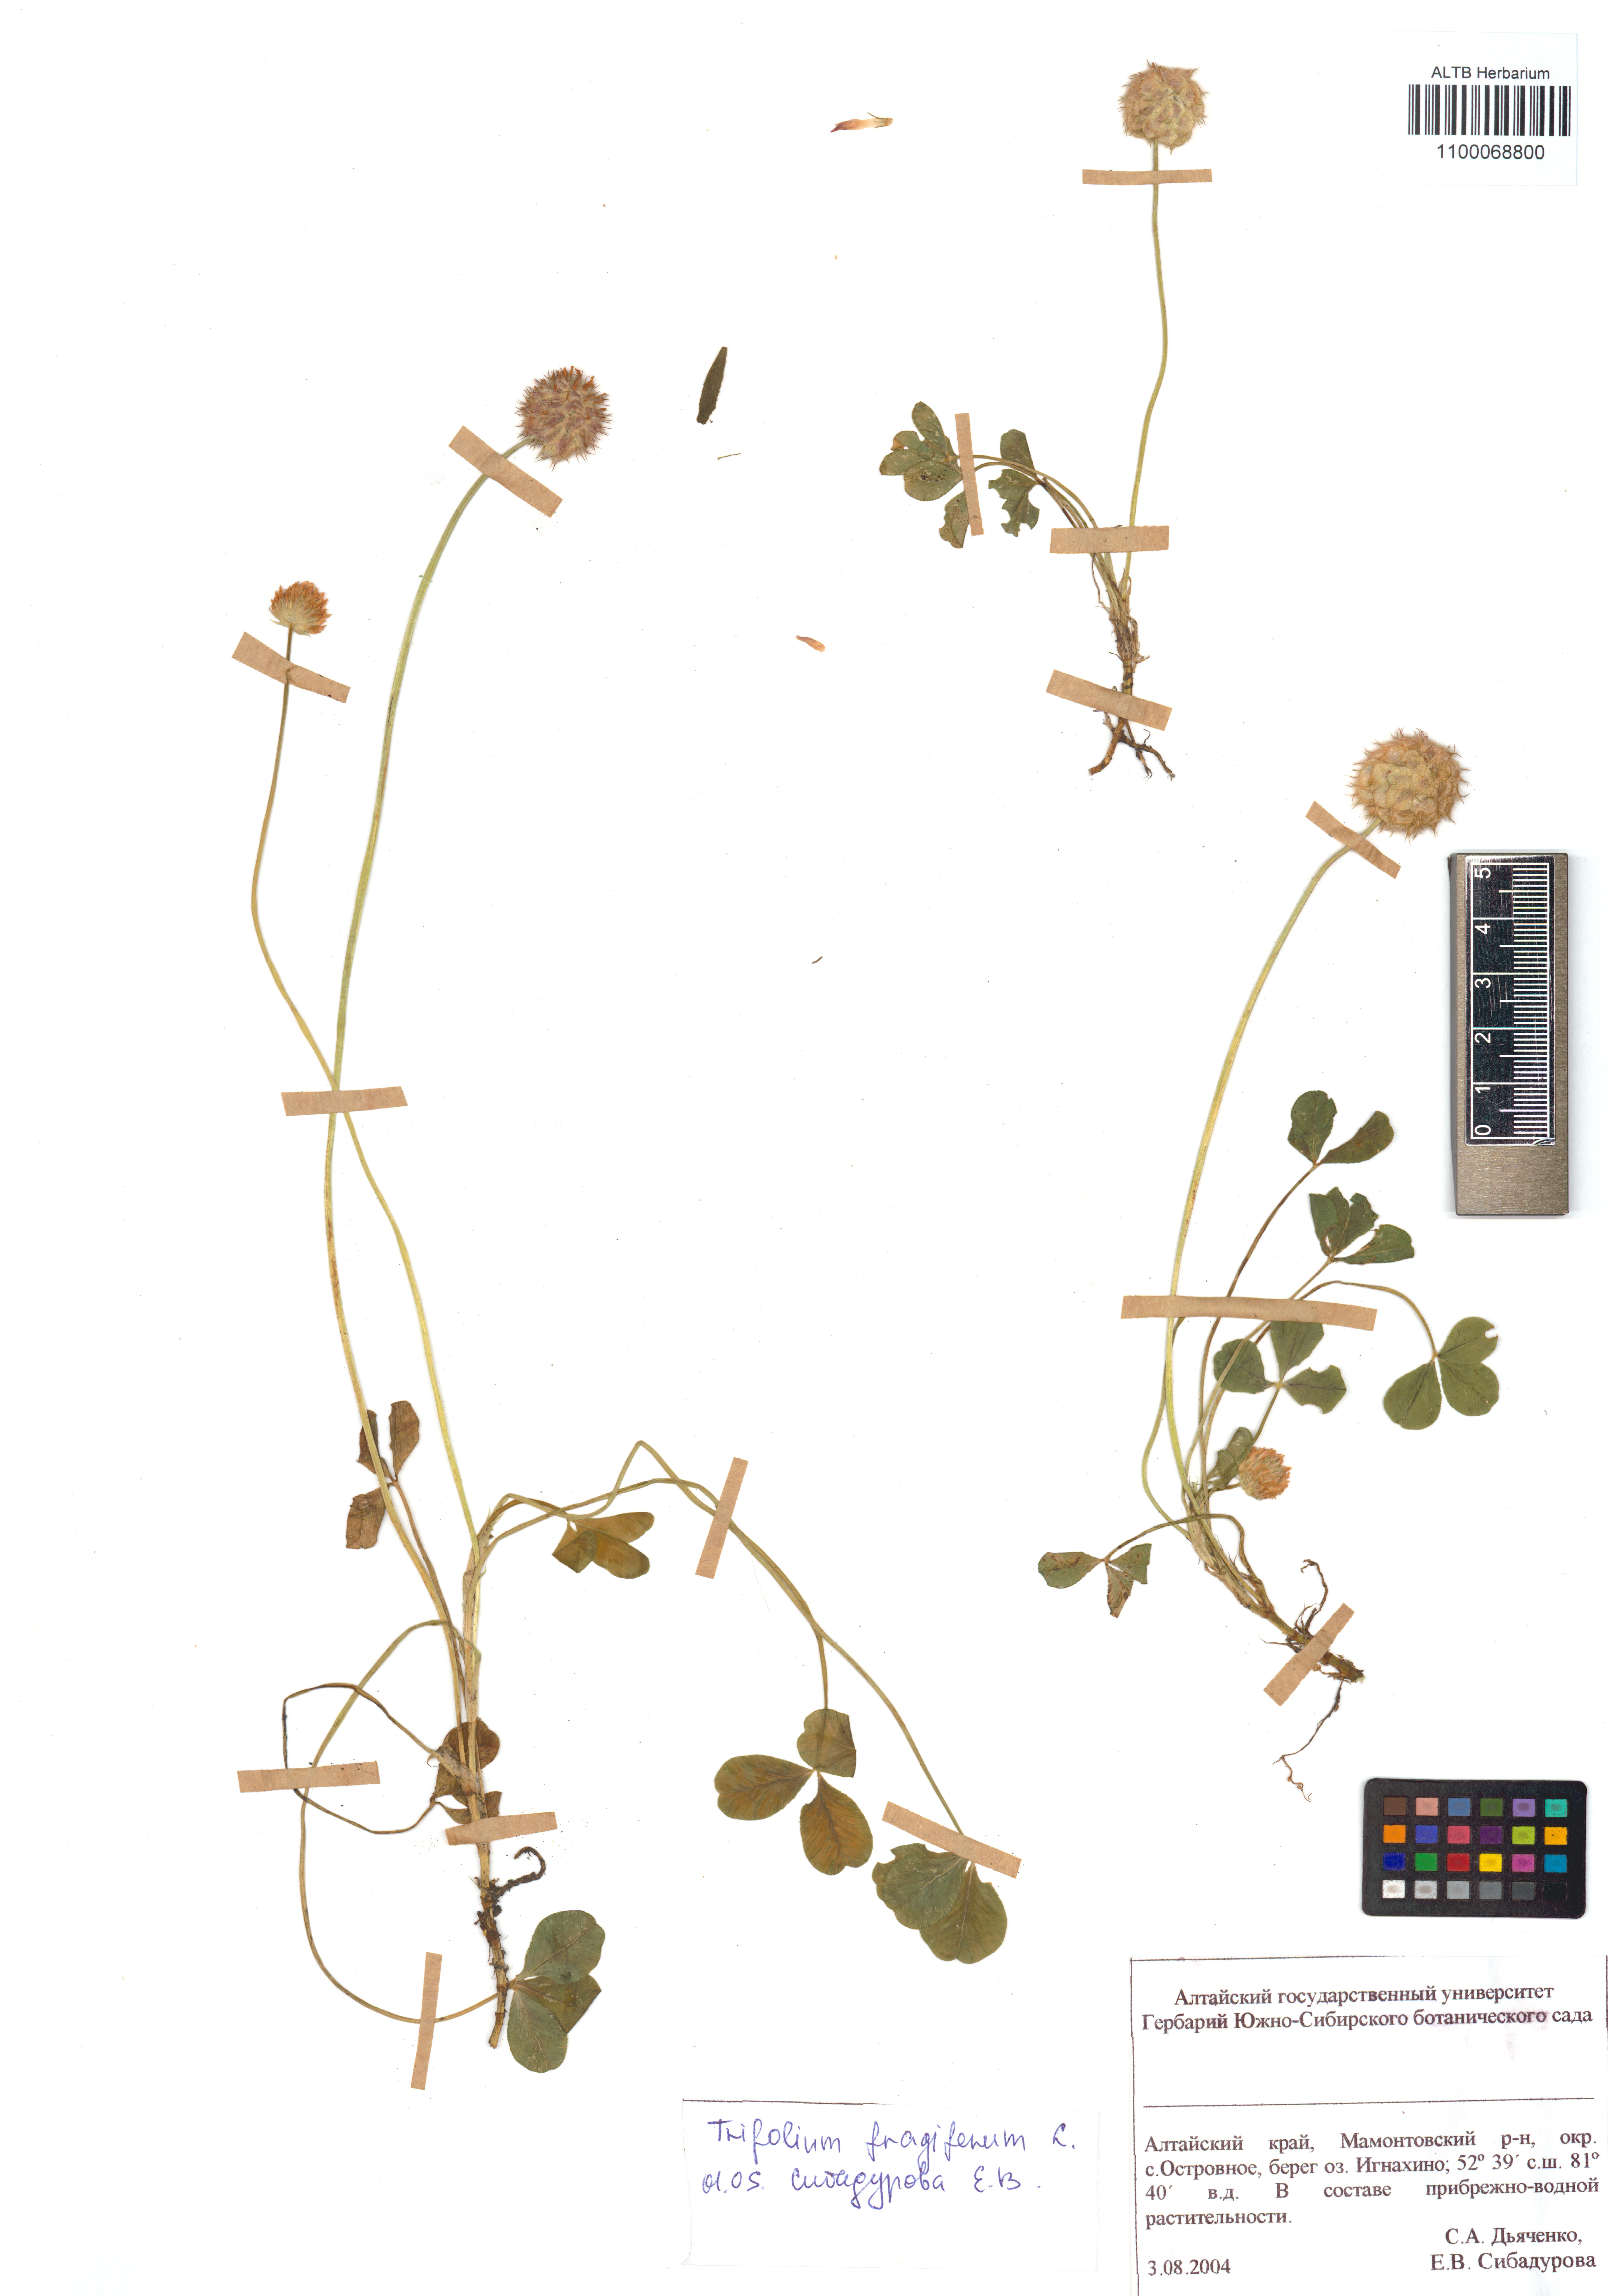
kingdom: Plantae
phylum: Tracheophyta
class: Magnoliopsida
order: Fabales
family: Fabaceae
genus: Trifolium
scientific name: Trifolium fragiferum
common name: Strawberry clover
